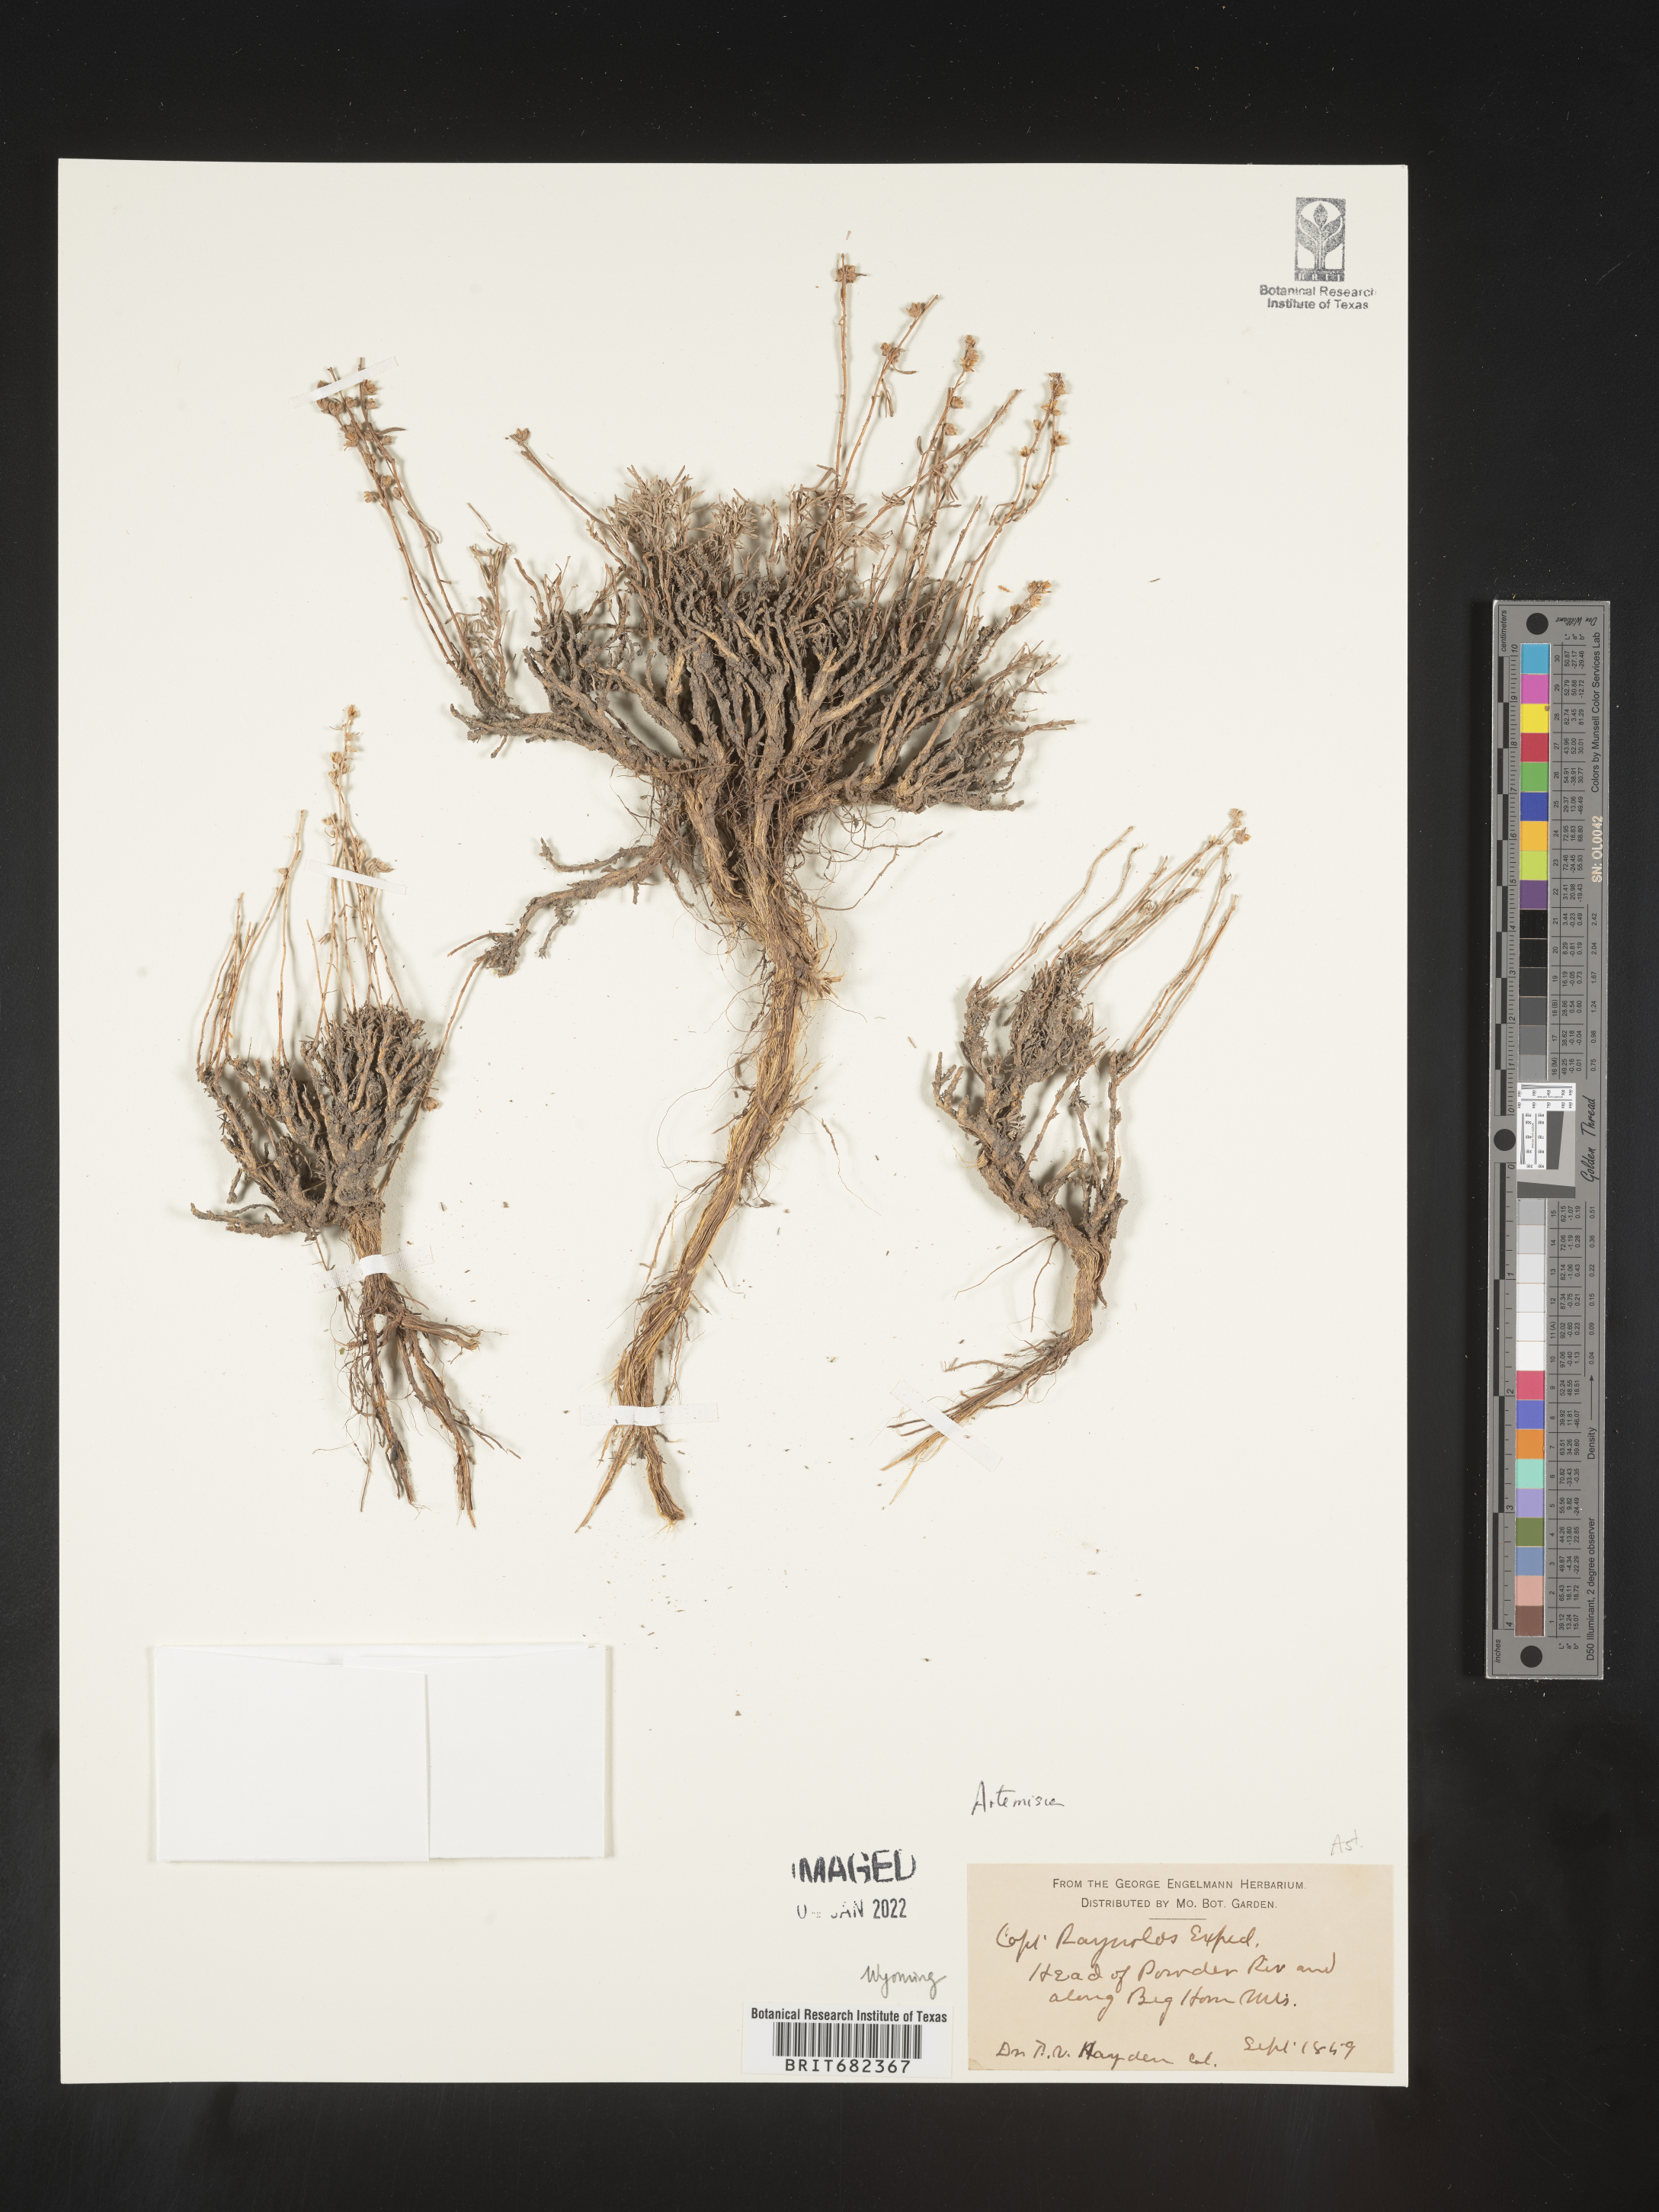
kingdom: Plantae
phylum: Tracheophyta
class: Magnoliopsida
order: Asterales
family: Asteraceae
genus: Artemisia
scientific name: Artemisia
